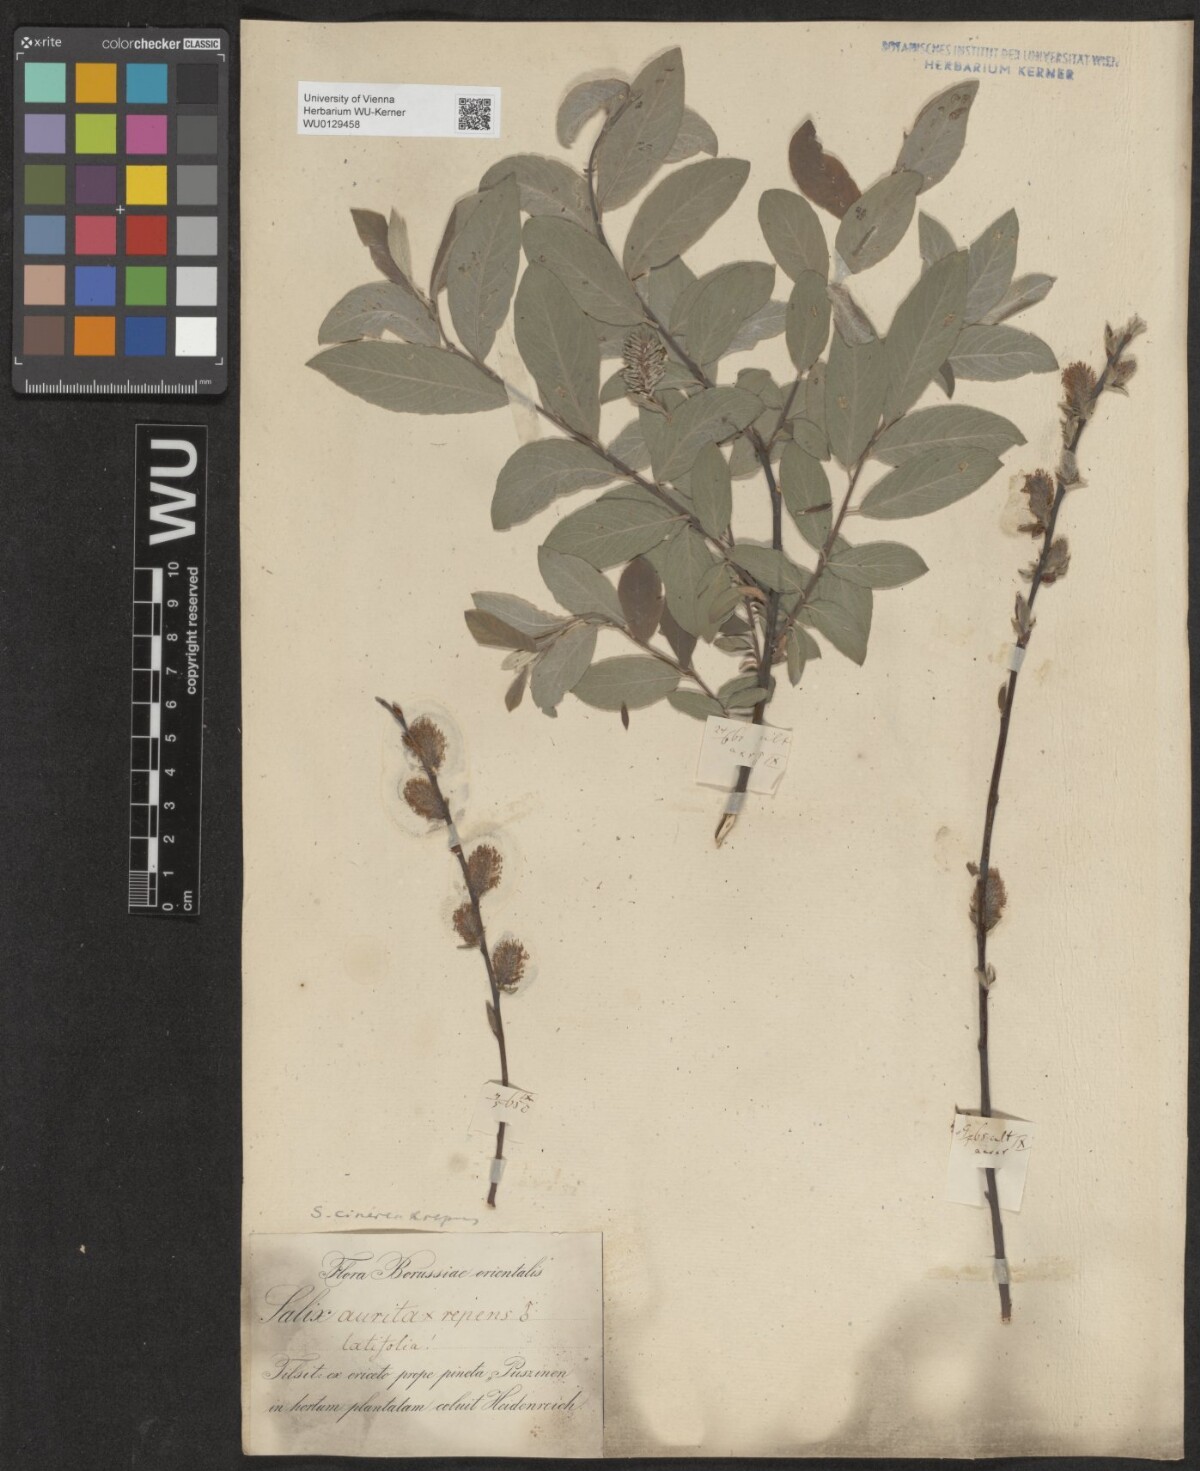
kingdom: Plantae
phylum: Tracheophyta
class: Magnoliopsida
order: Malpighiales
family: Salicaceae
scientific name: Salicaceae
